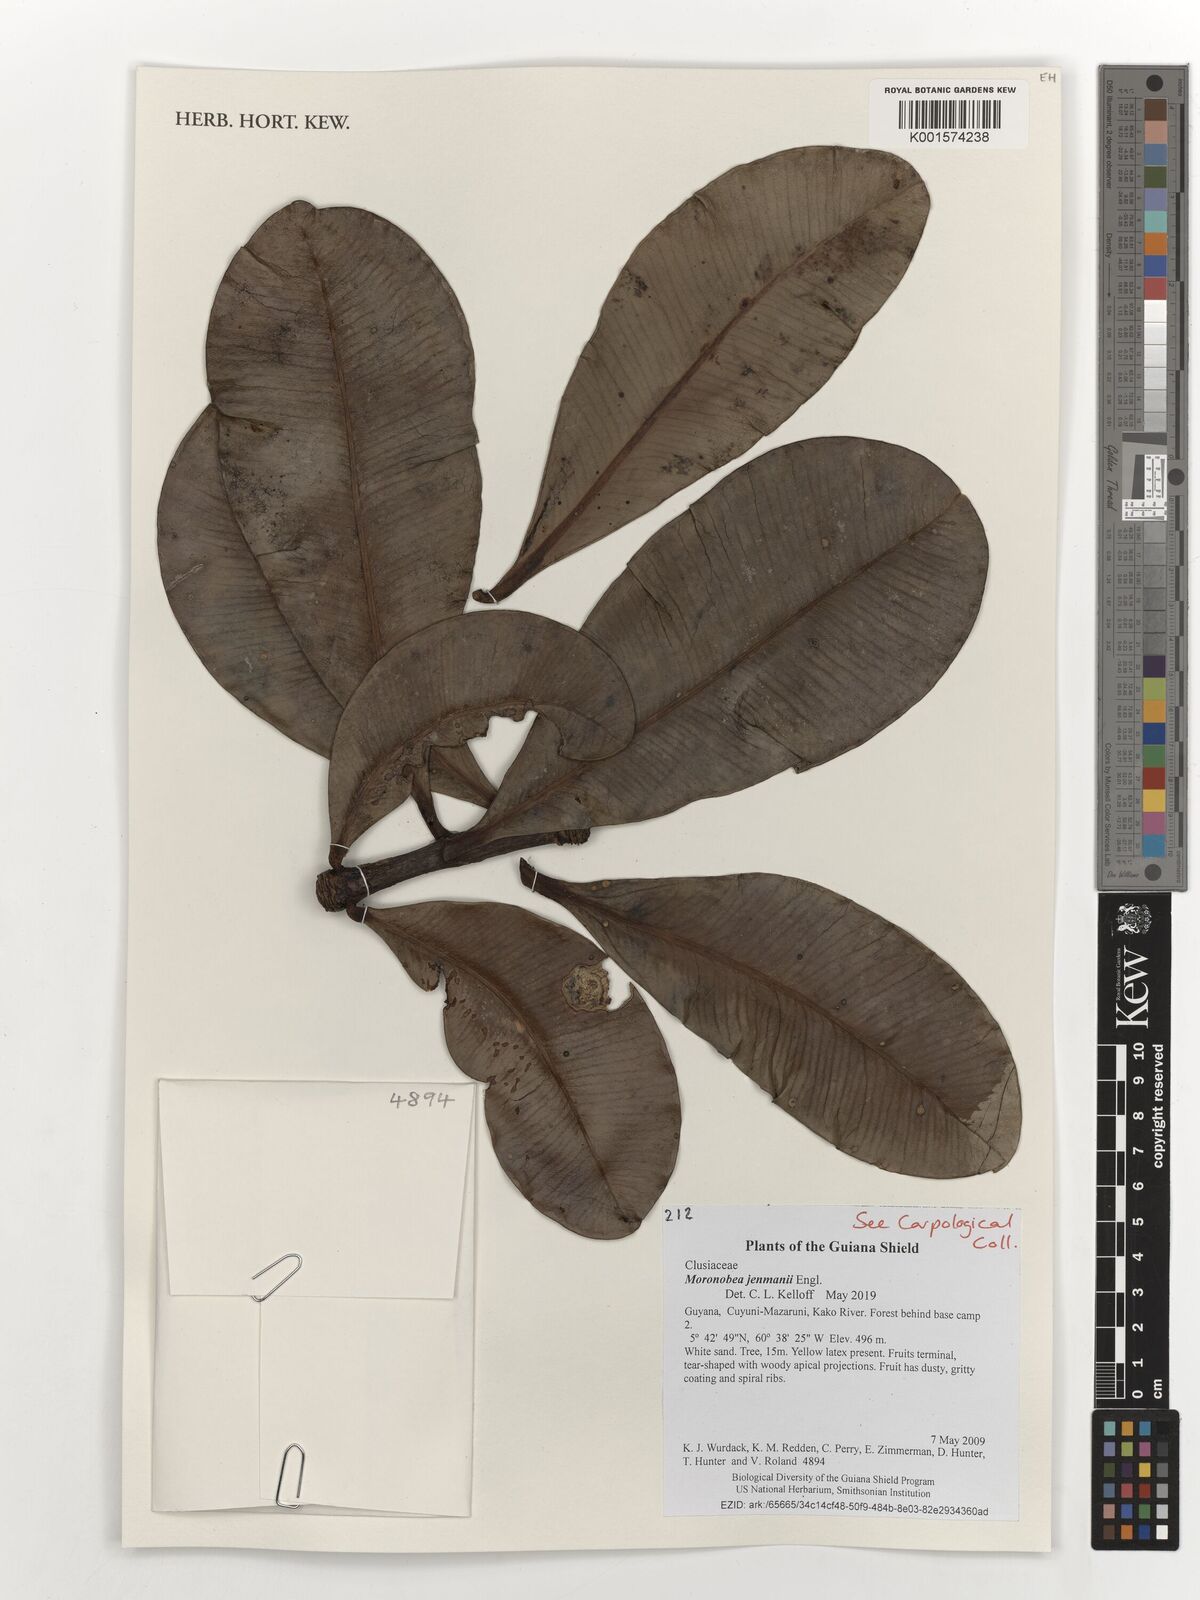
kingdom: Plantae
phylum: Tracheophyta
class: Magnoliopsida
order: Malpighiales
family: Clusiaceae
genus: Moronobea
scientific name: Moronobea jenmanii
